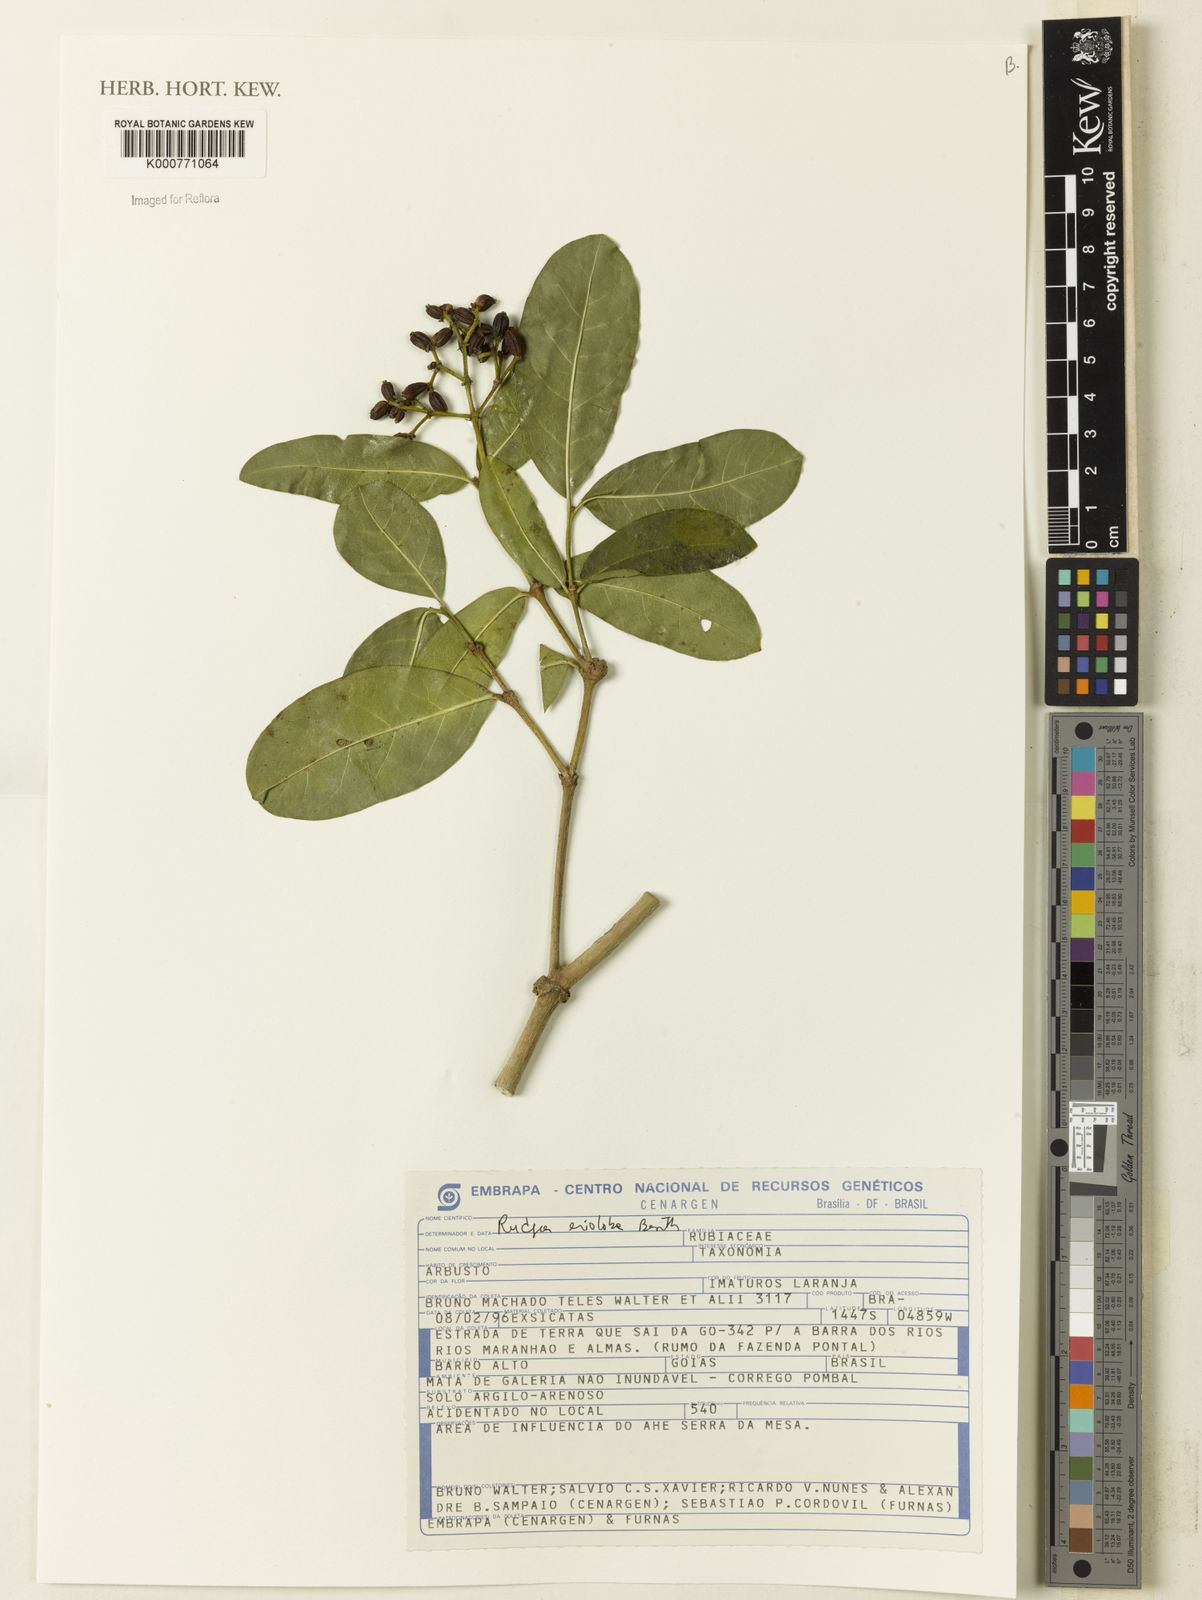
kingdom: Plantae
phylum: Tracheophyta
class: Magnoliopsida
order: Gentianales
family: Rubiaceae
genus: Rudgea
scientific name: Rudgea erioloba
